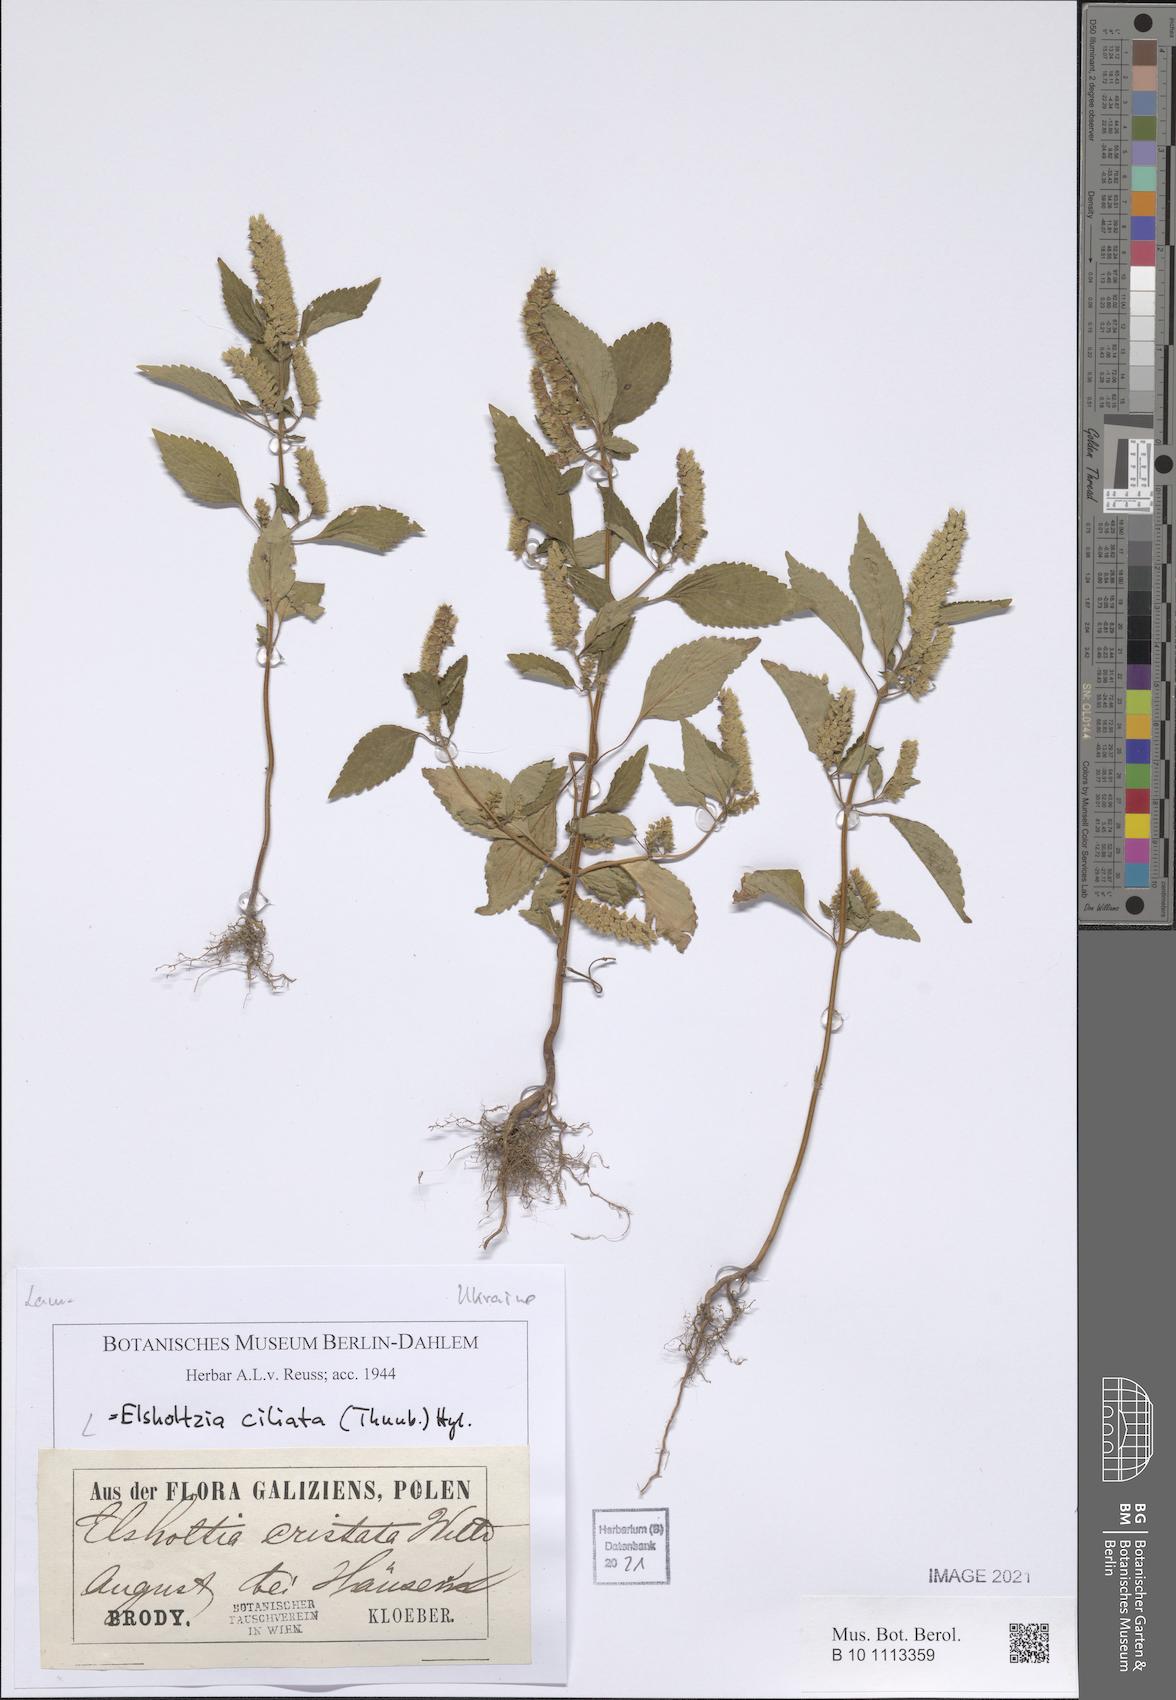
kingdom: Plantae
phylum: Tracheophyta
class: Magnoliopsida
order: Lamiales
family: Lamiaceae
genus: Elsholtzia
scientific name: Elsholtzia ciliata
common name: Ciliate elsholtzia
